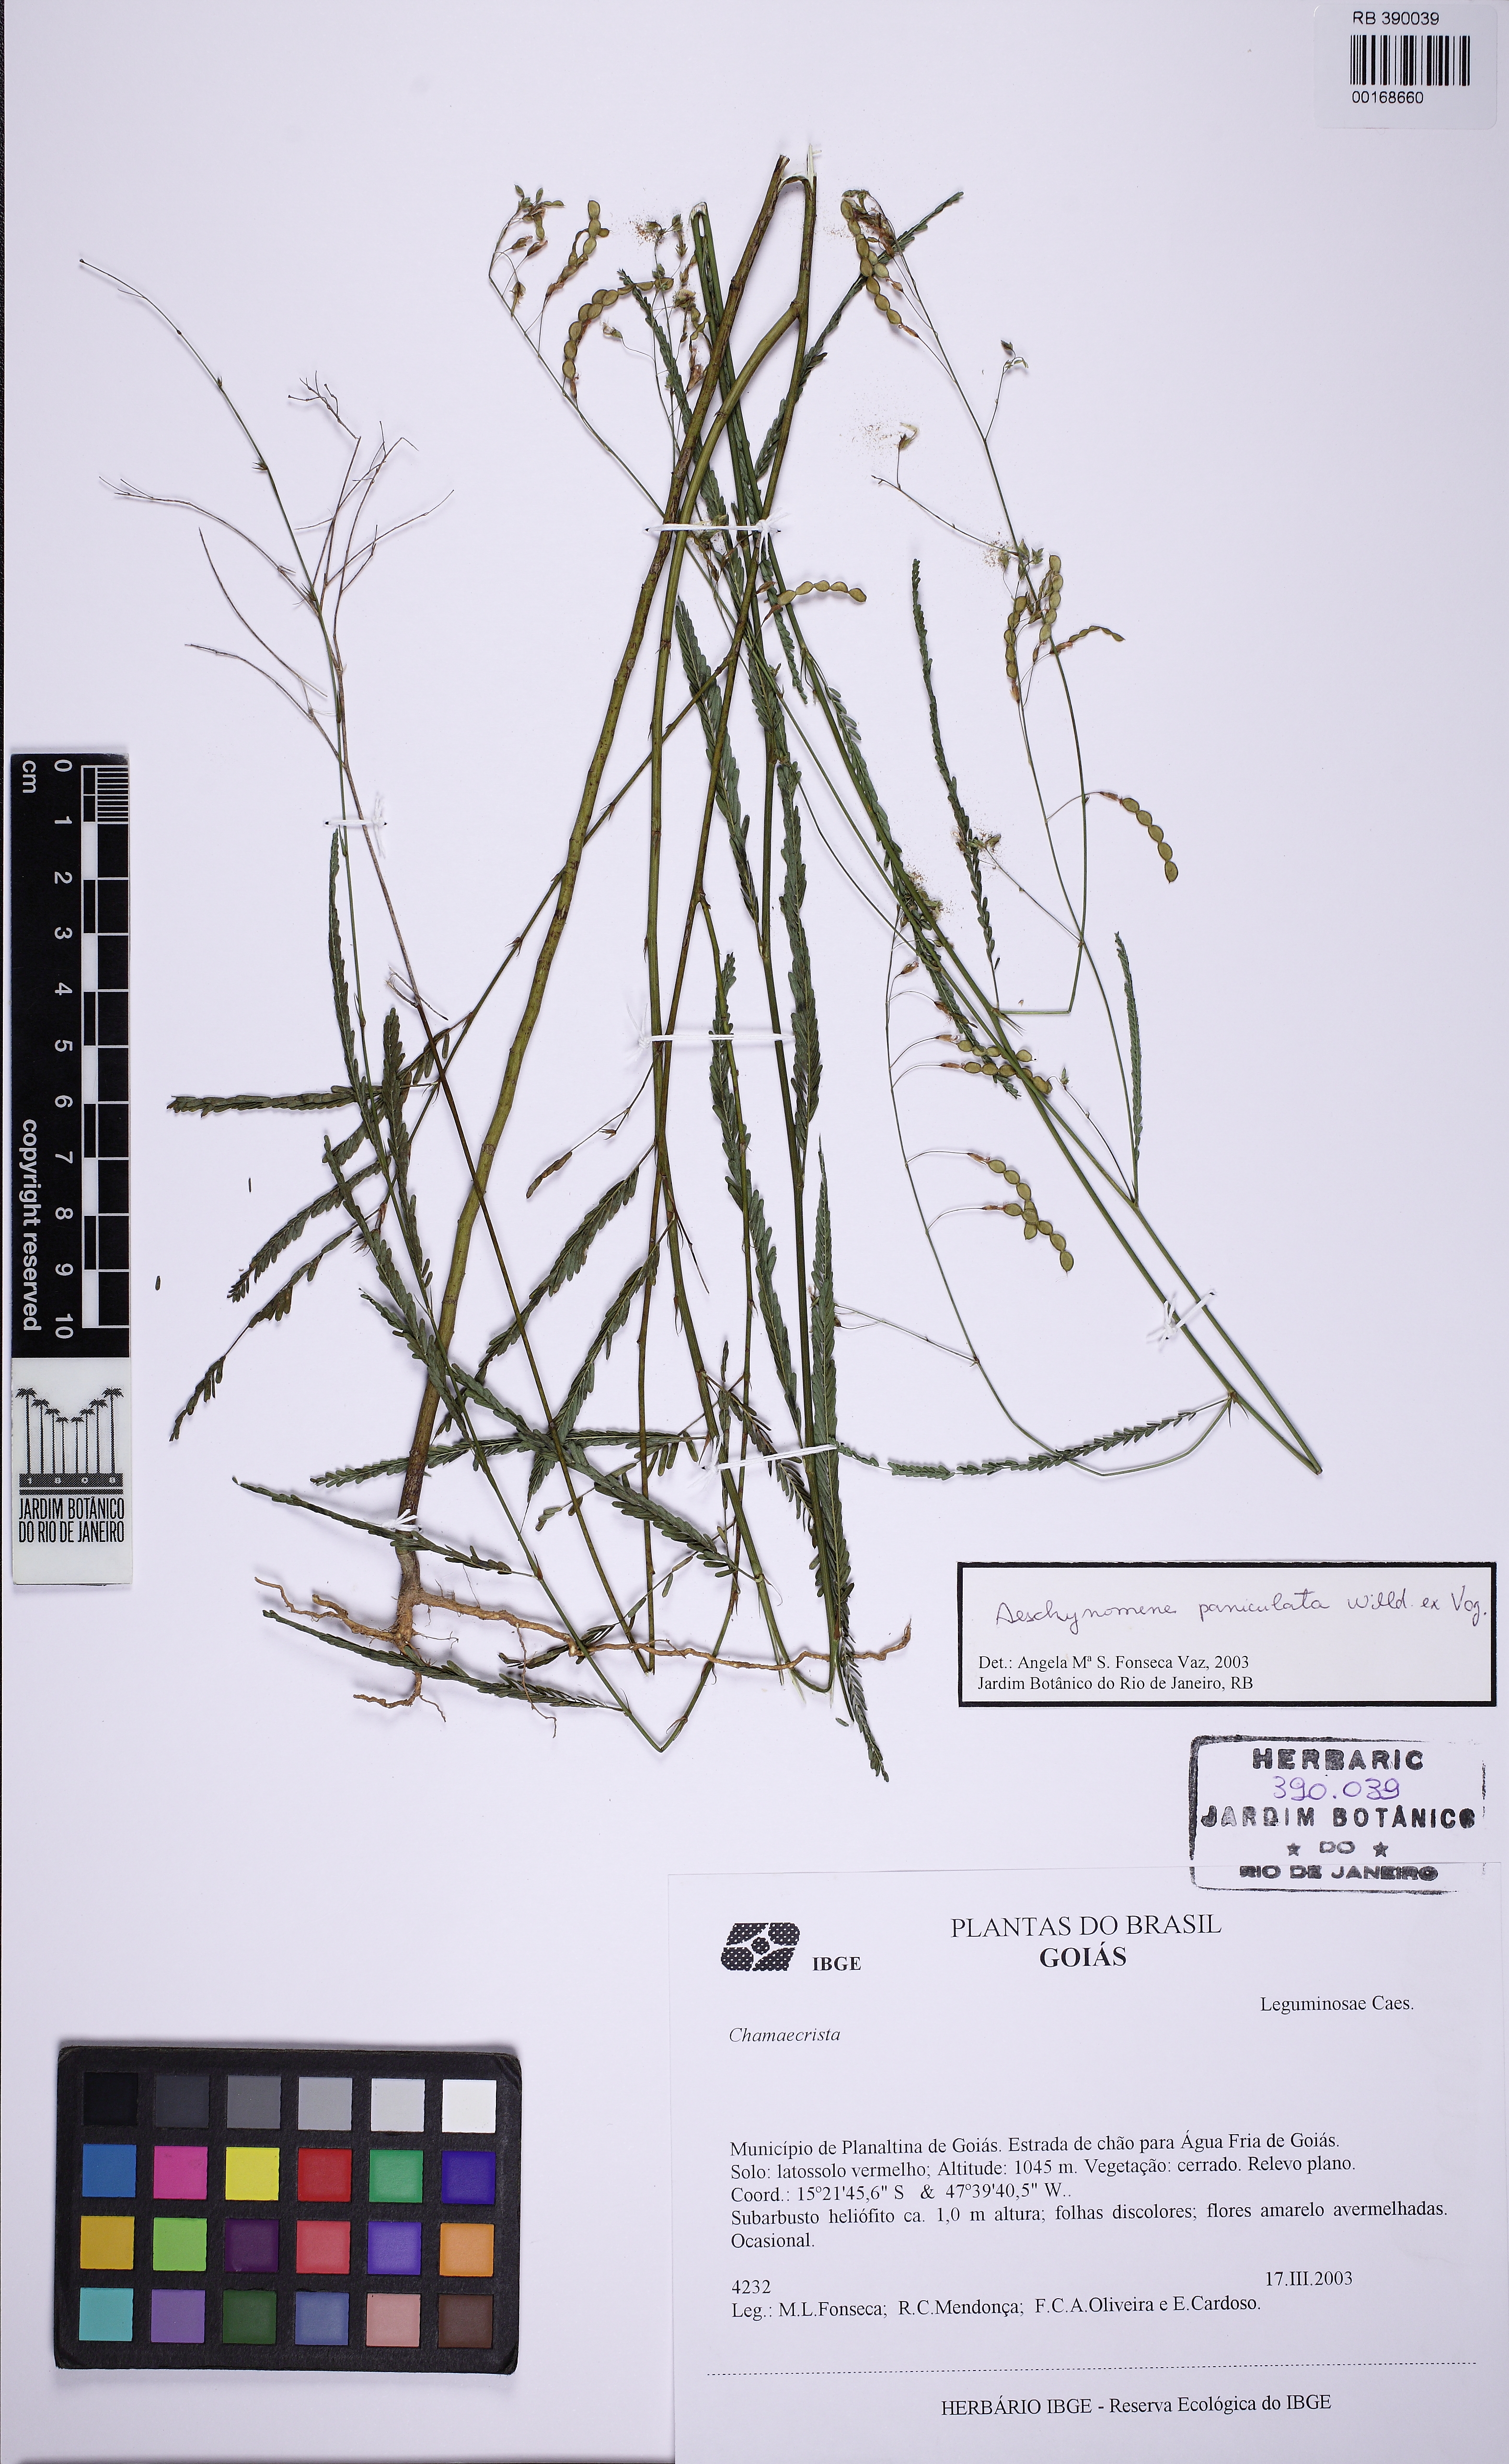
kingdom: Plantae
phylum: Tracheophyta
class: Magnoliopsida
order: Fabales
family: Fabaceae
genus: Ctenodon
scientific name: Ctenodon paniculatus
